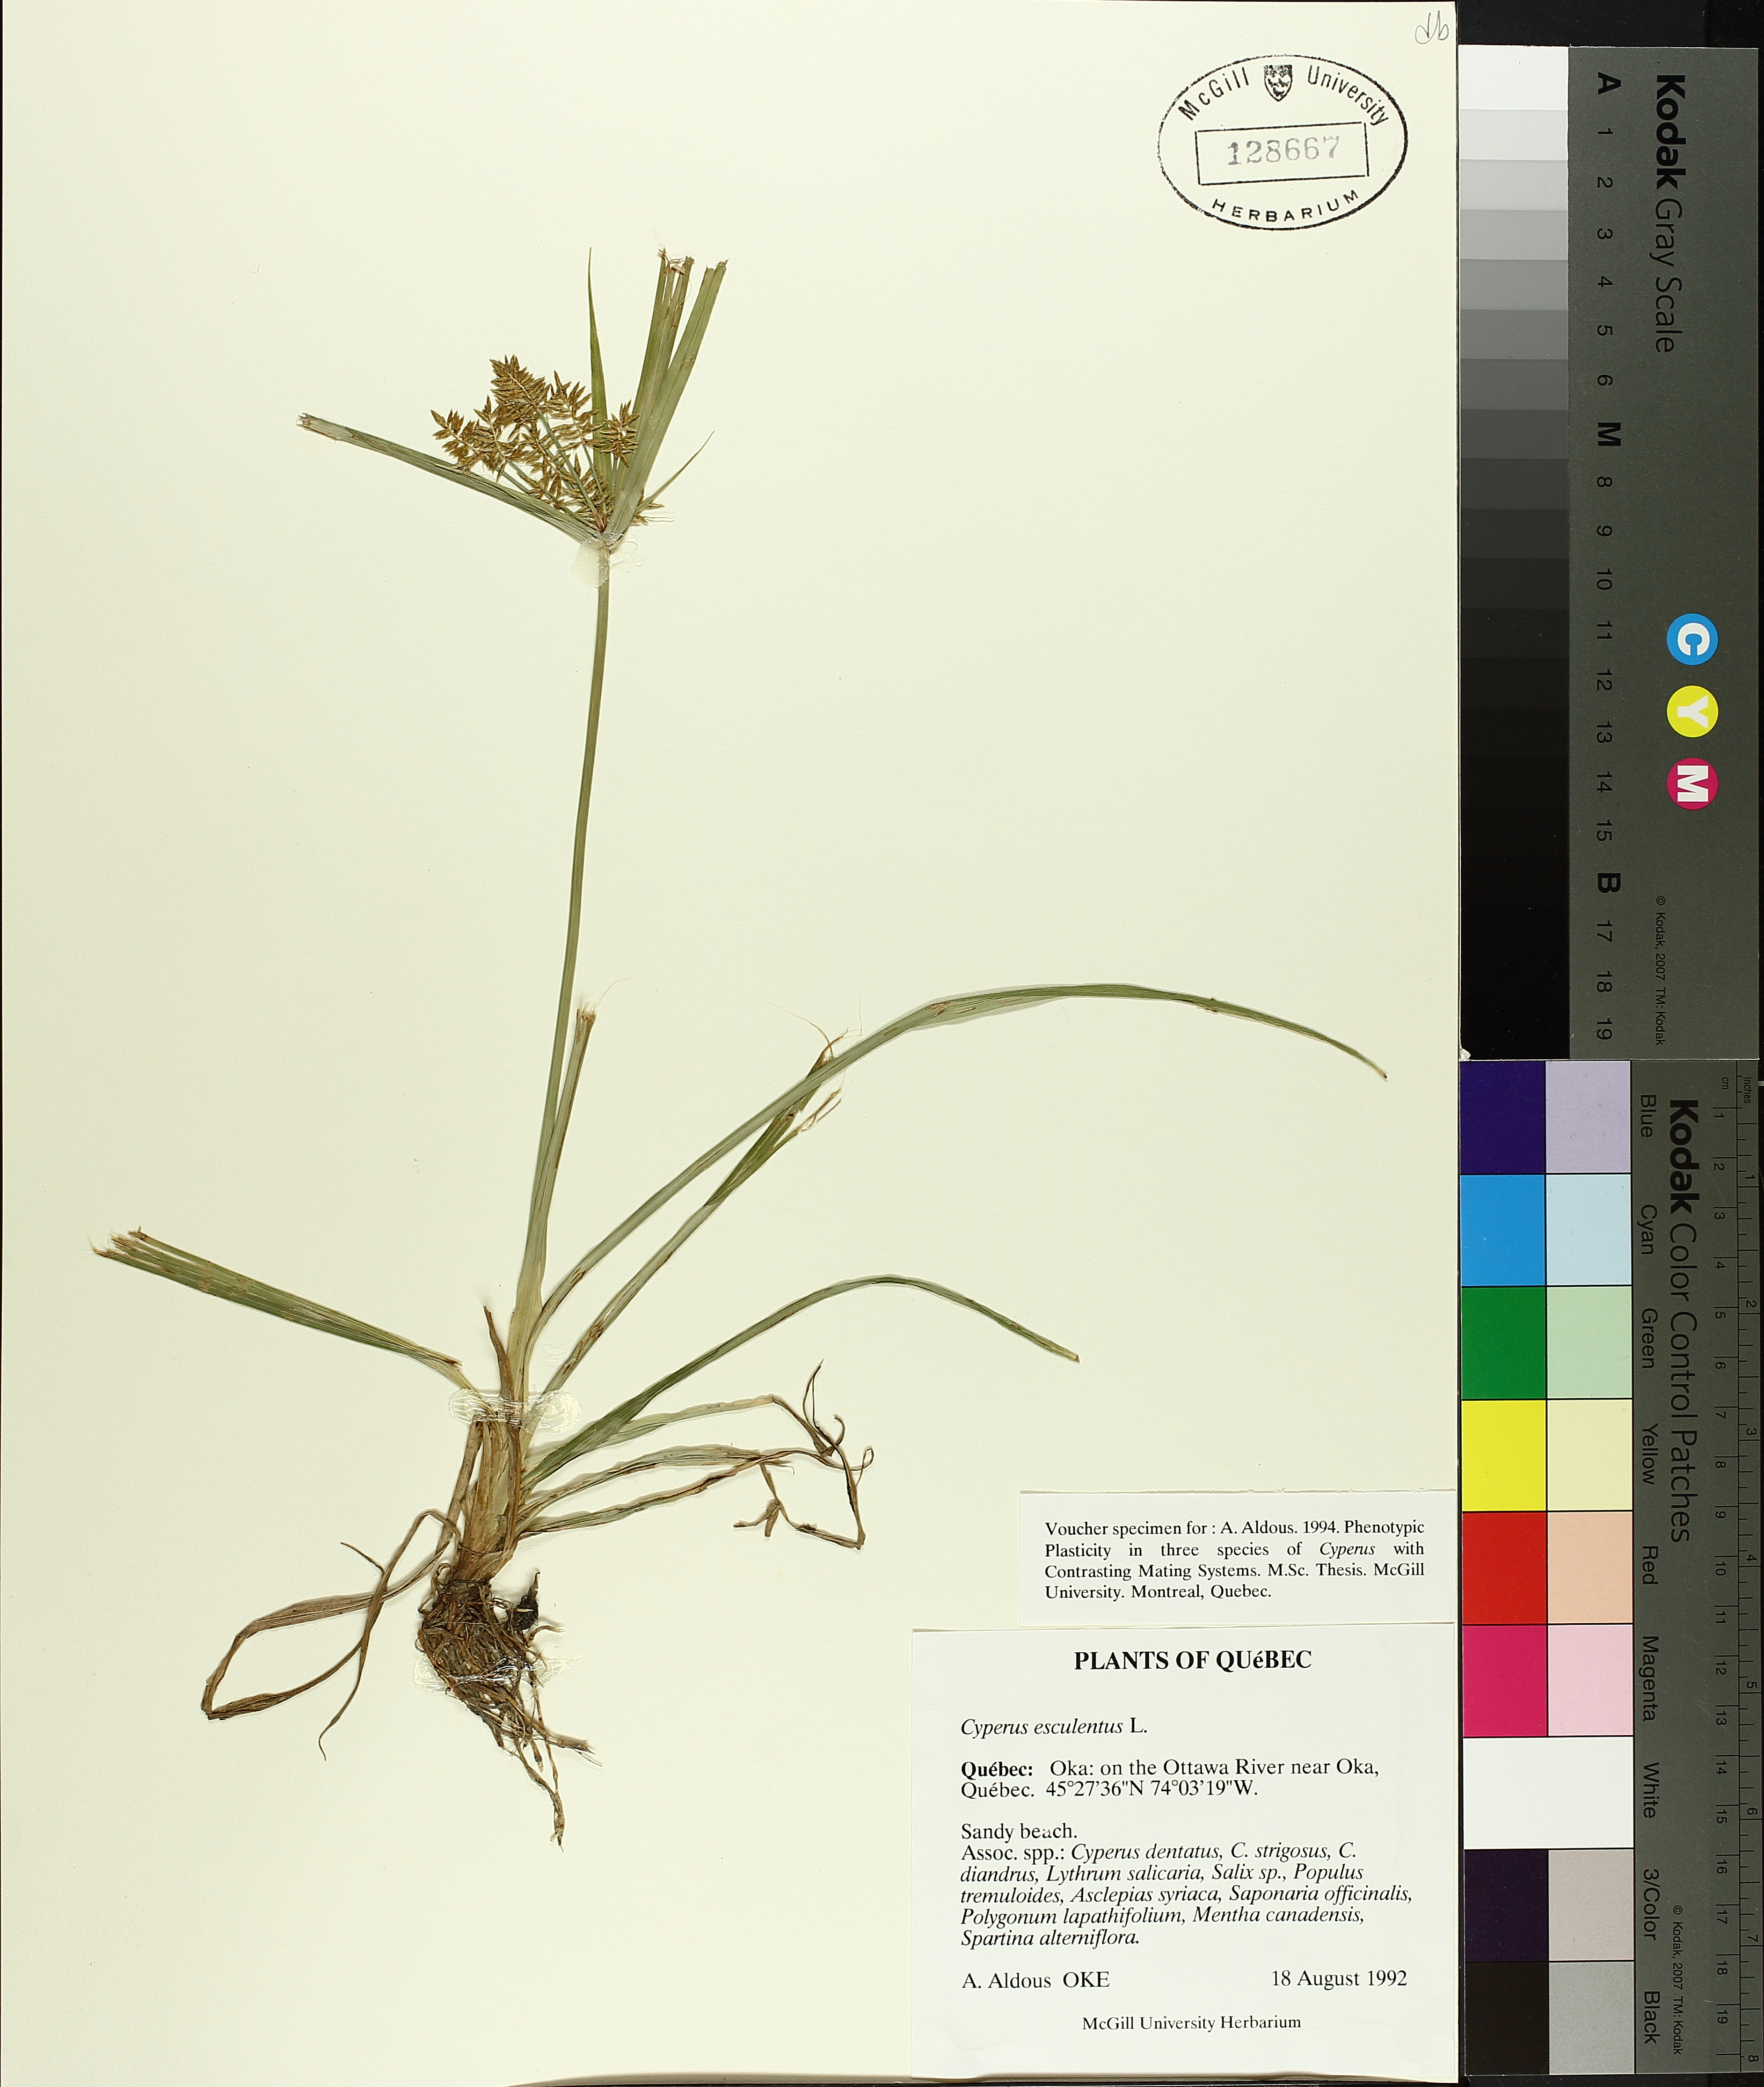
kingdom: Plantae
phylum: Tracheophyta
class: Liliopsida
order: Poales
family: Cyperaceae
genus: Cyperus
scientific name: Cyperus esculentus
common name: Yellow nutsedge
